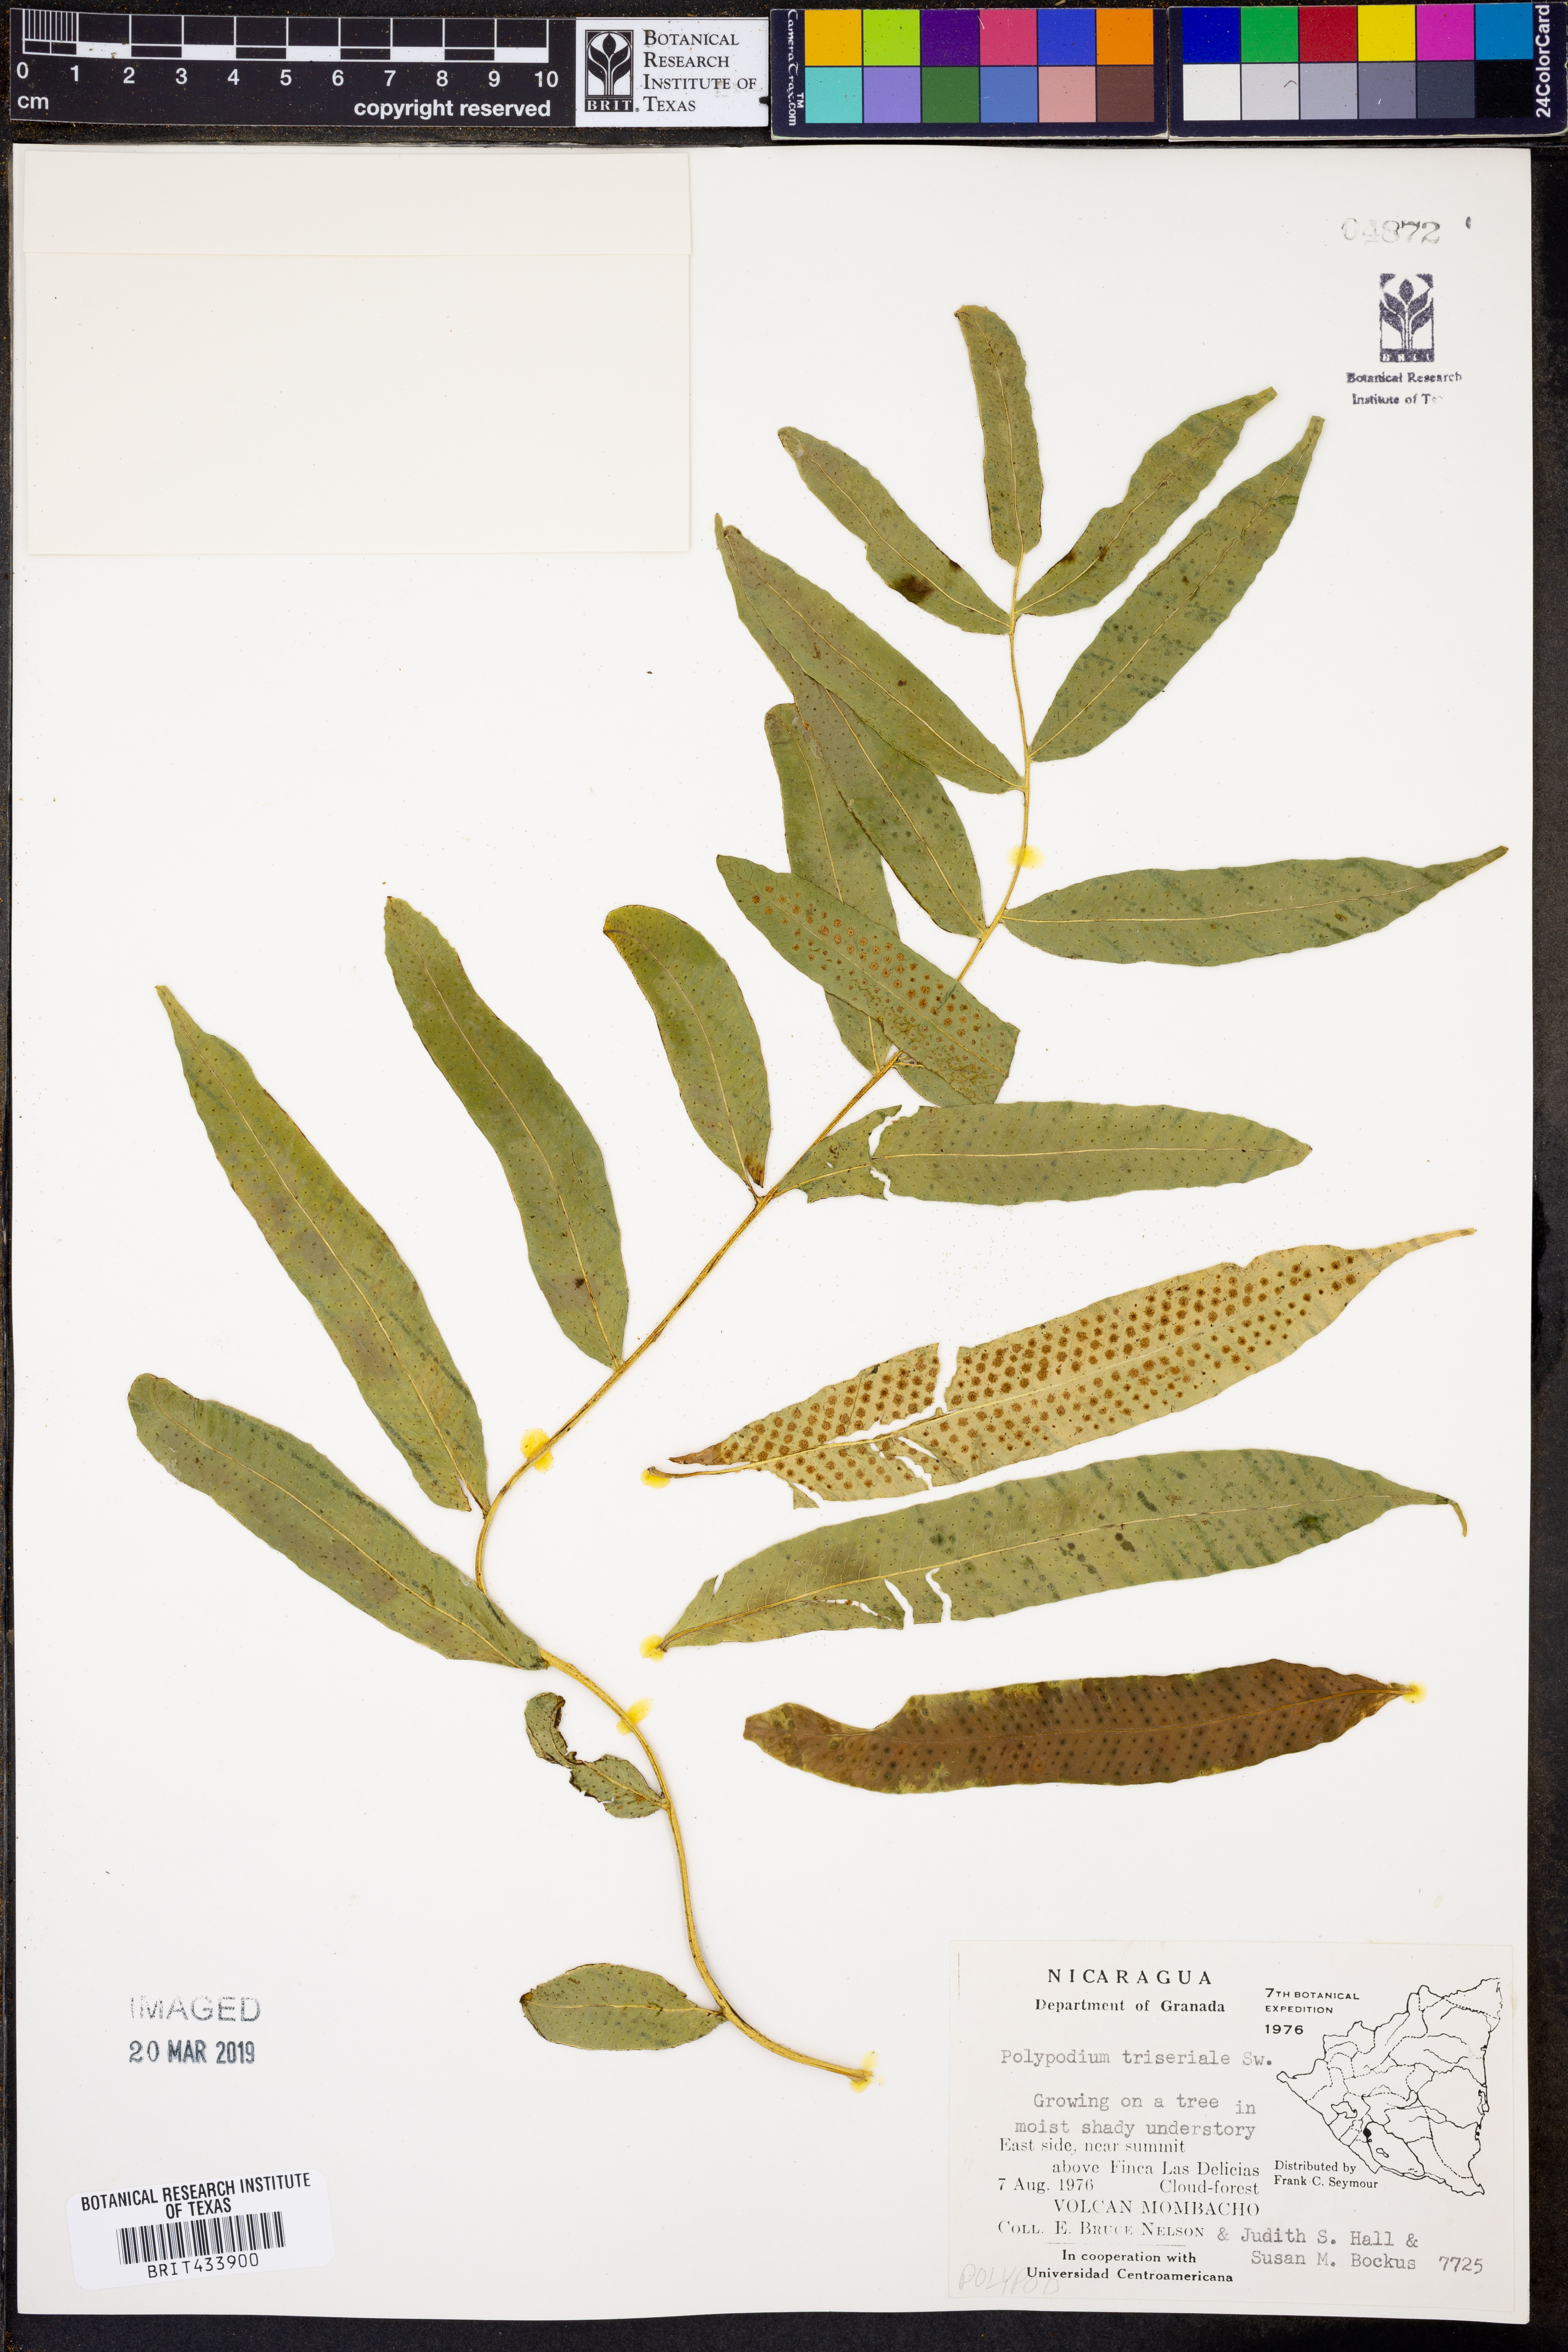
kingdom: Plantae
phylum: Tracheophyta
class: Polypodiopsida
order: Polypodiales
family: Polypodiaceae
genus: Serpocaulon
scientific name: Serpocaulon triseriale
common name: Angle-vein fern
